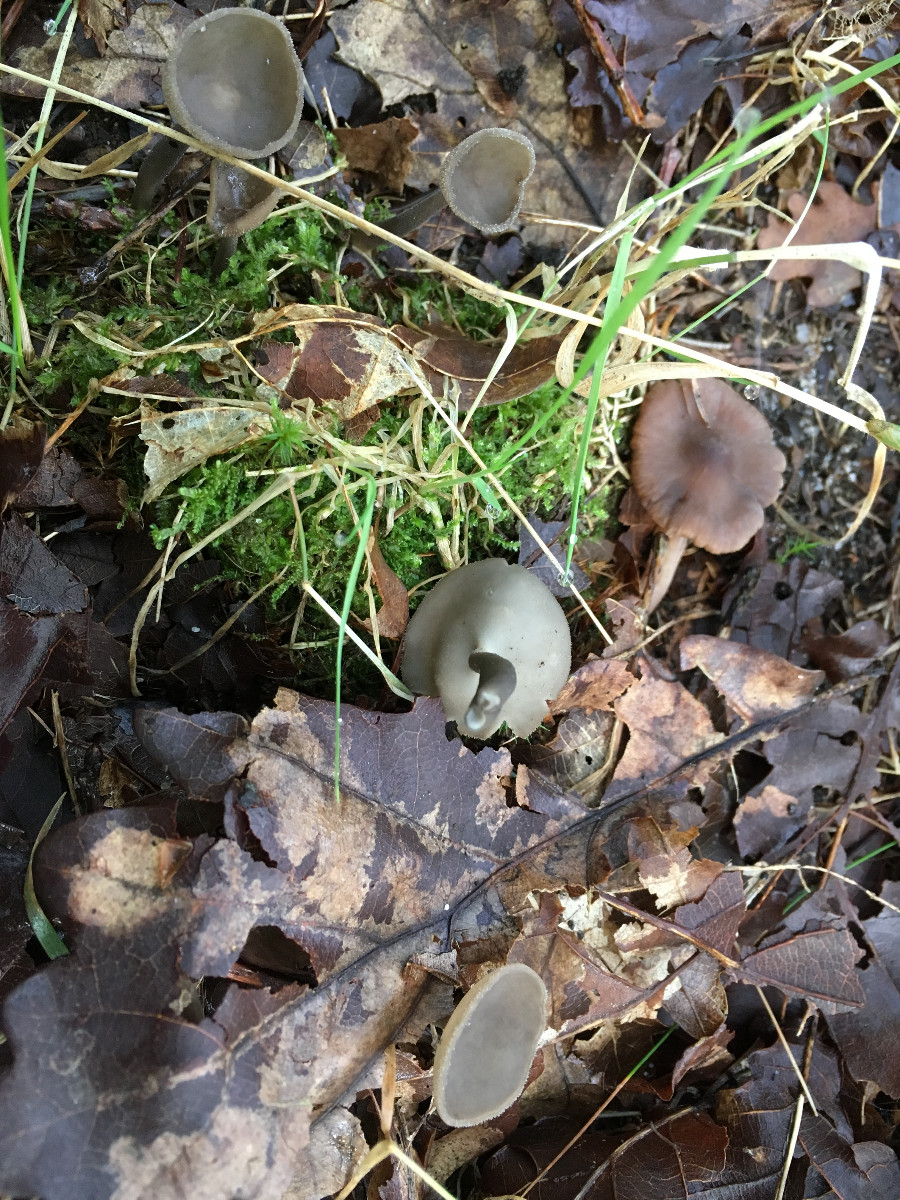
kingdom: Fungi
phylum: Ascomycota
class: Pezizomycetes
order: Pezizales
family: Helvellaceae
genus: Helvella
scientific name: Helvella
